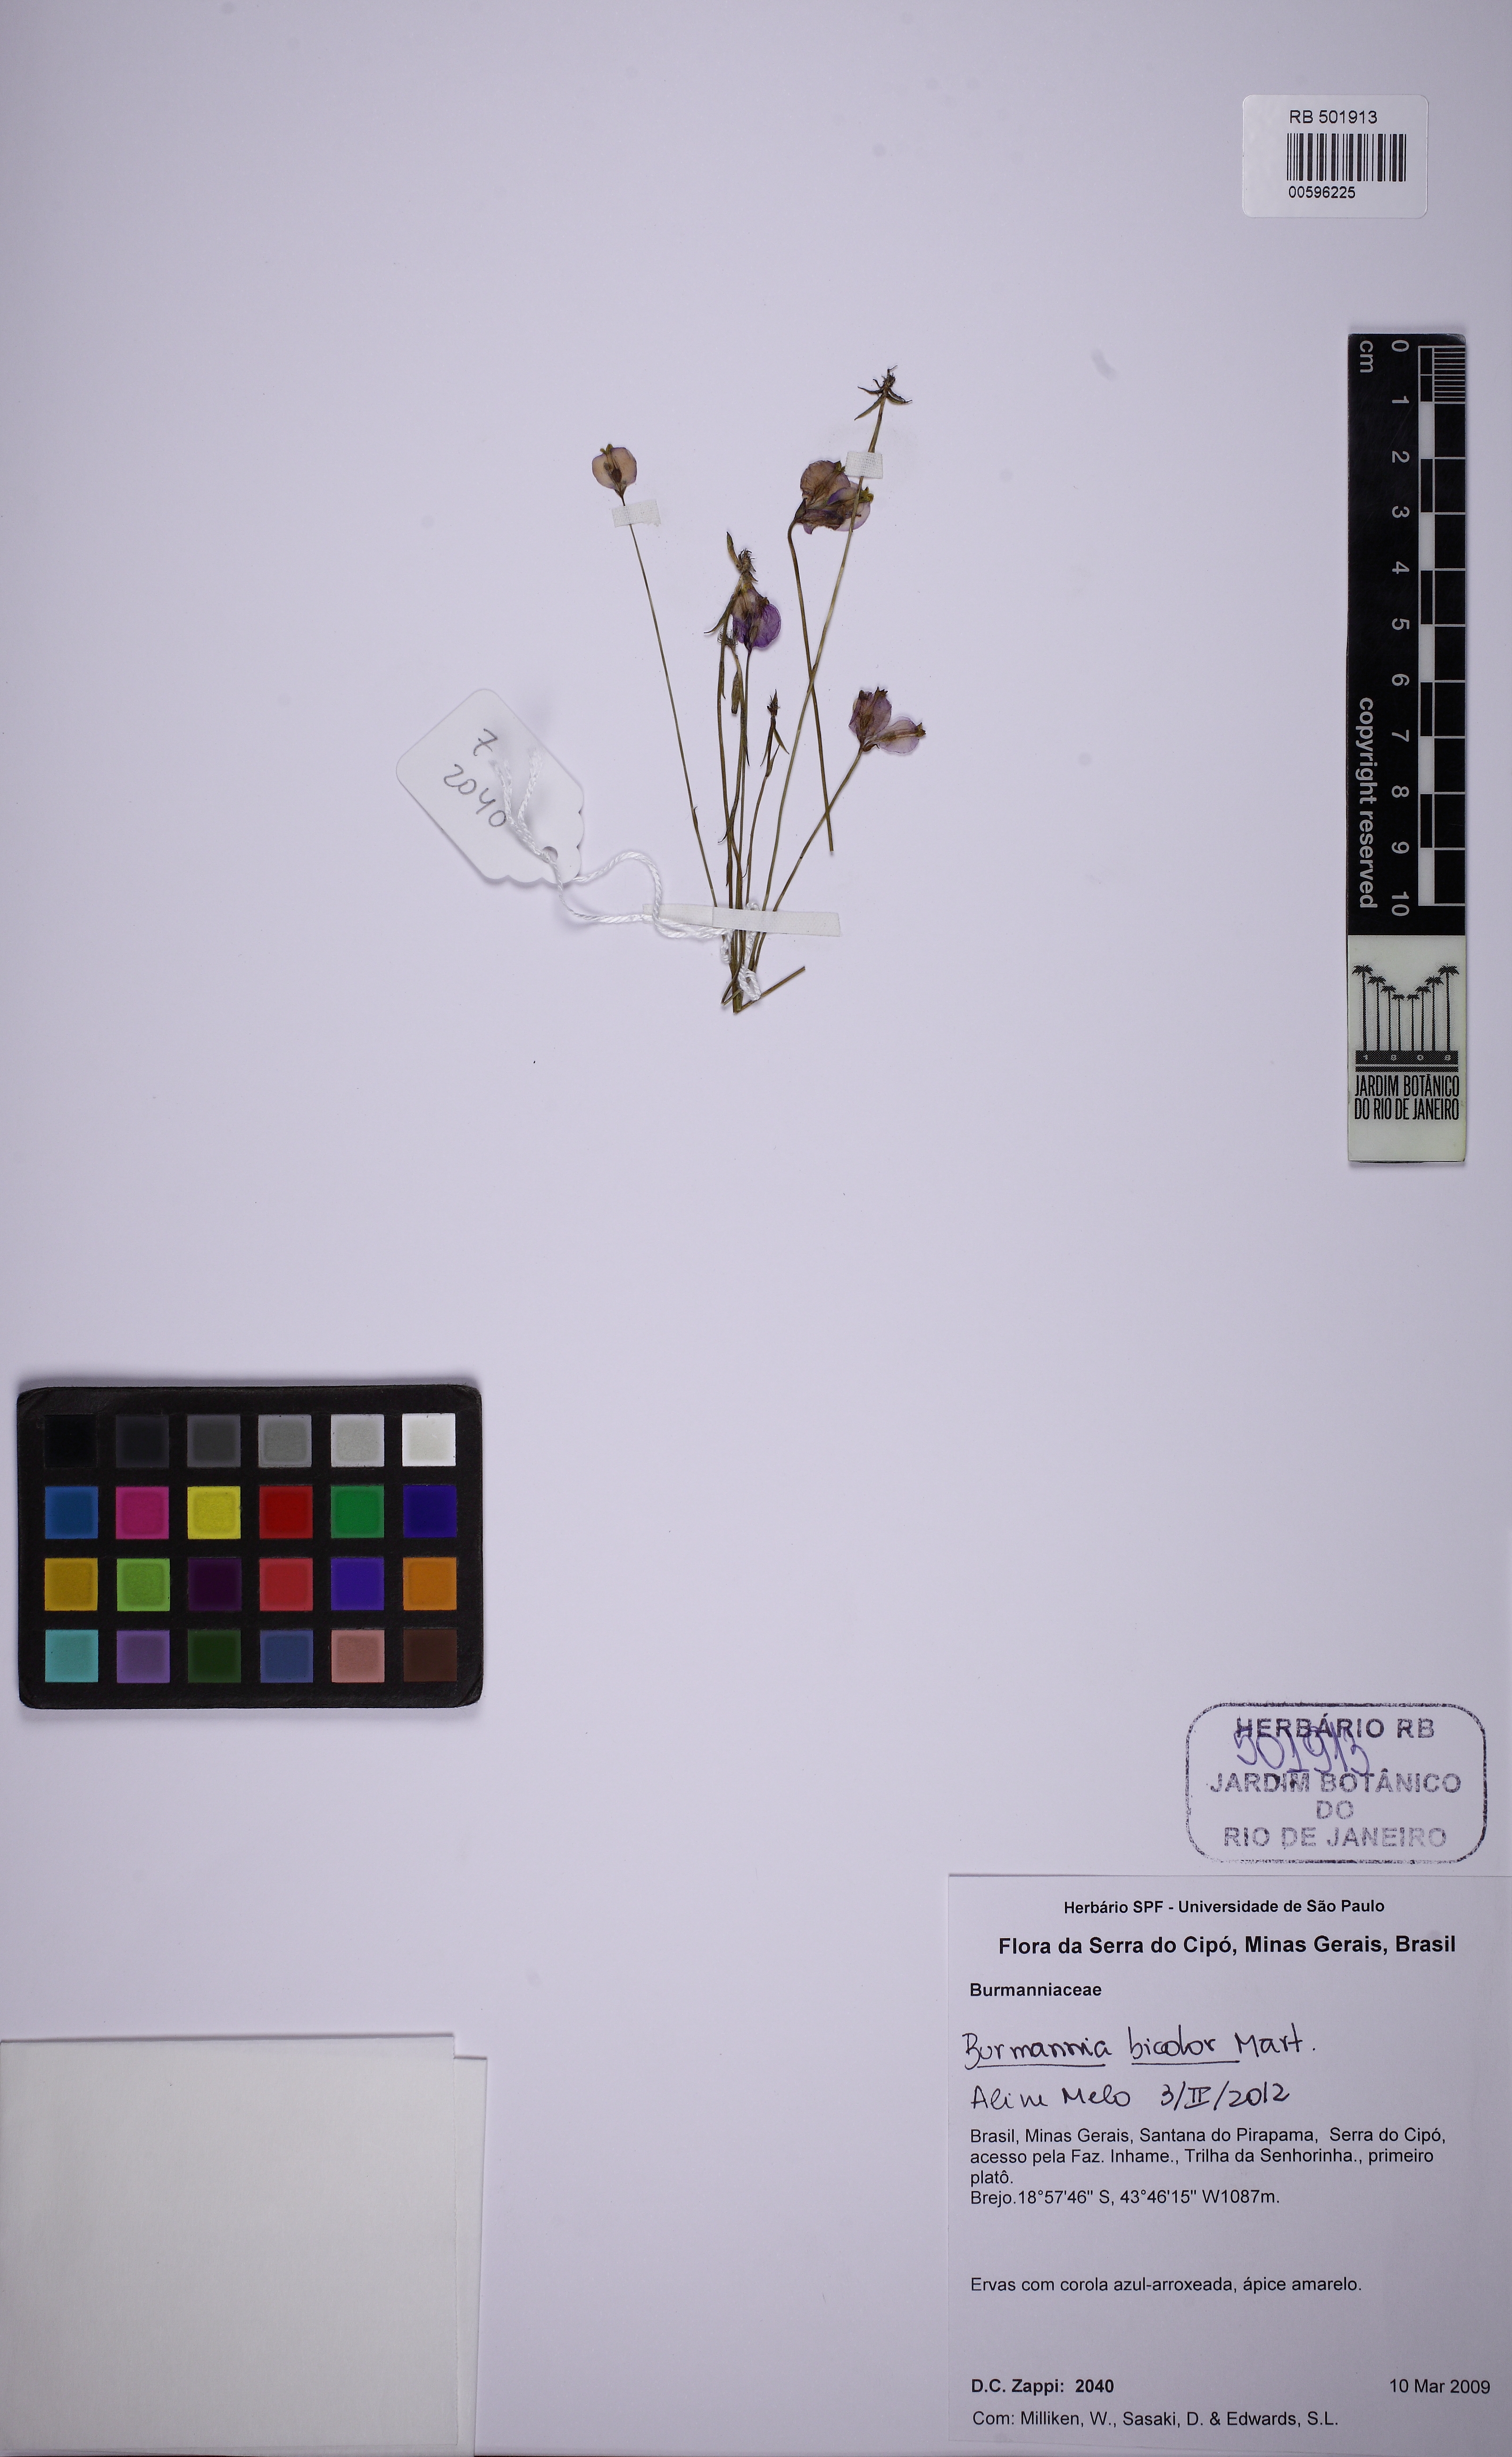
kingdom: Plantae
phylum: Tracheophyta
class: Liliopsida
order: Dioscoreales
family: Burmanniaceae
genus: Burmannia
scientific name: Burmannia bicolor
